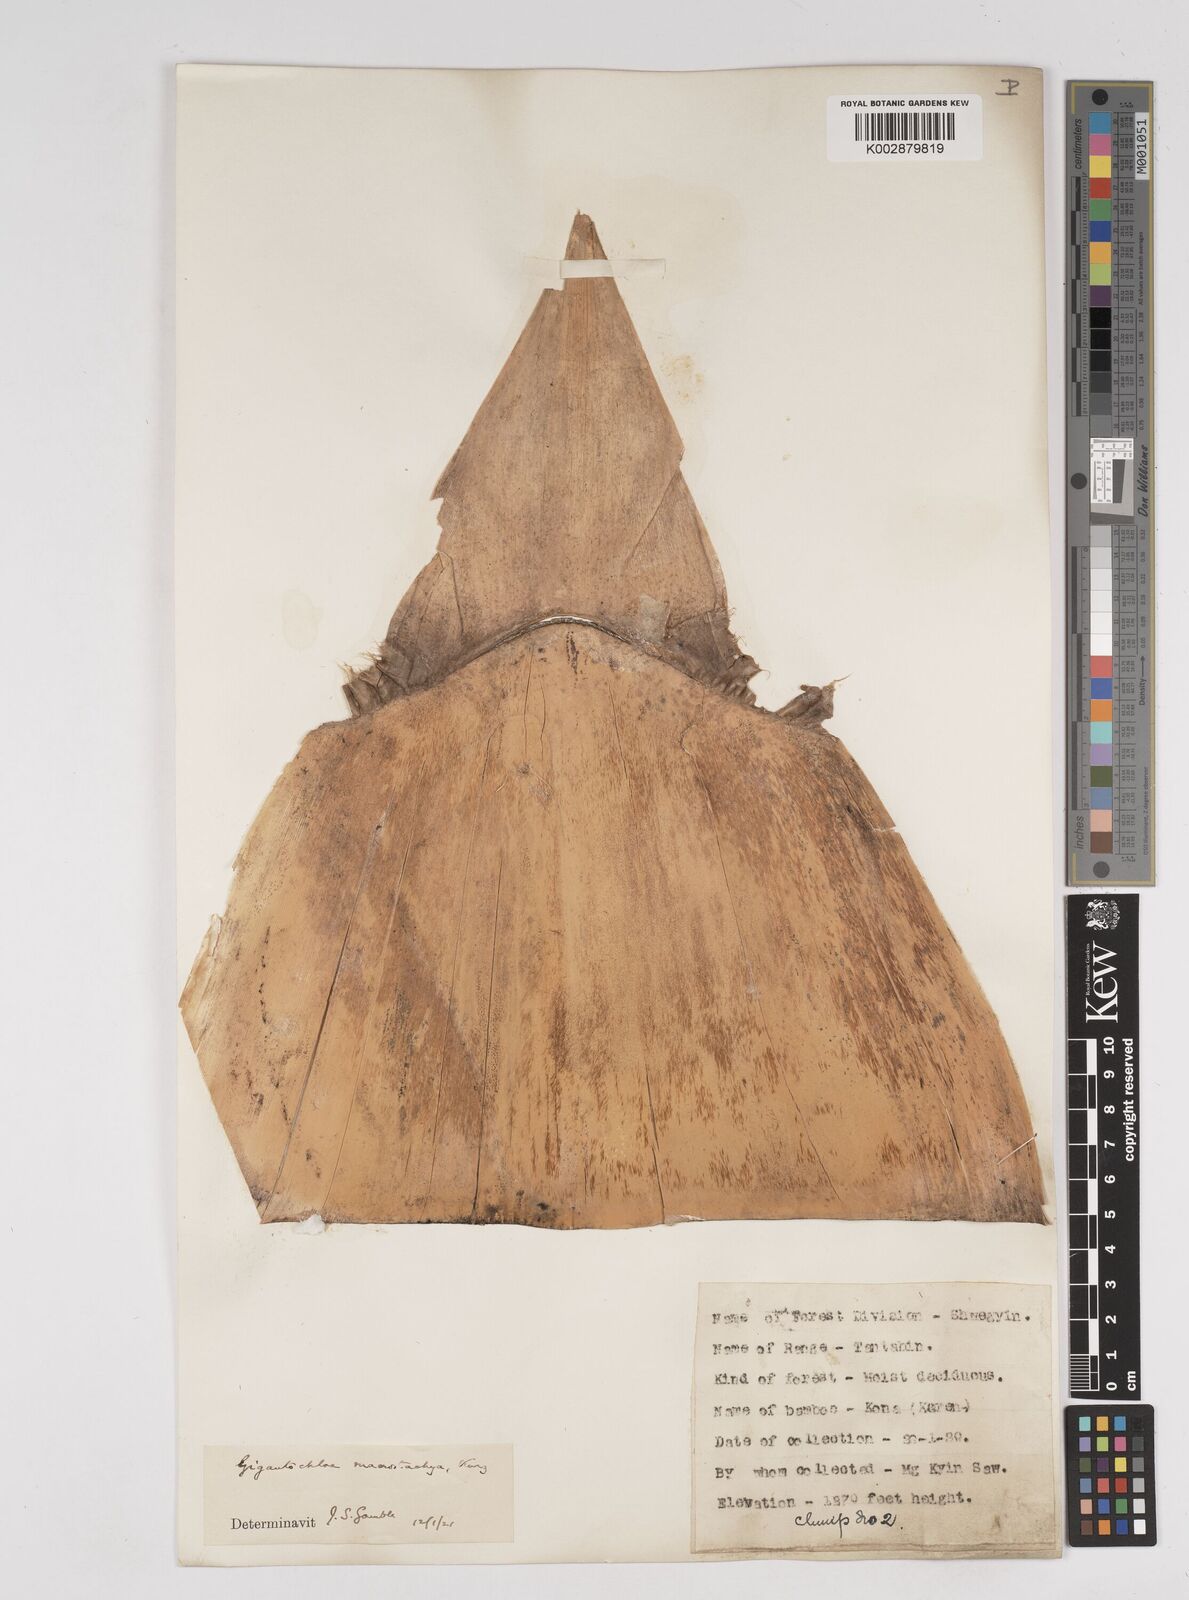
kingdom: Plantae
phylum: Tracheophyta
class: Liliopsida
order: Poales
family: Poaceae
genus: Gigantochloa
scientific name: Gigantochloa macrostachya
